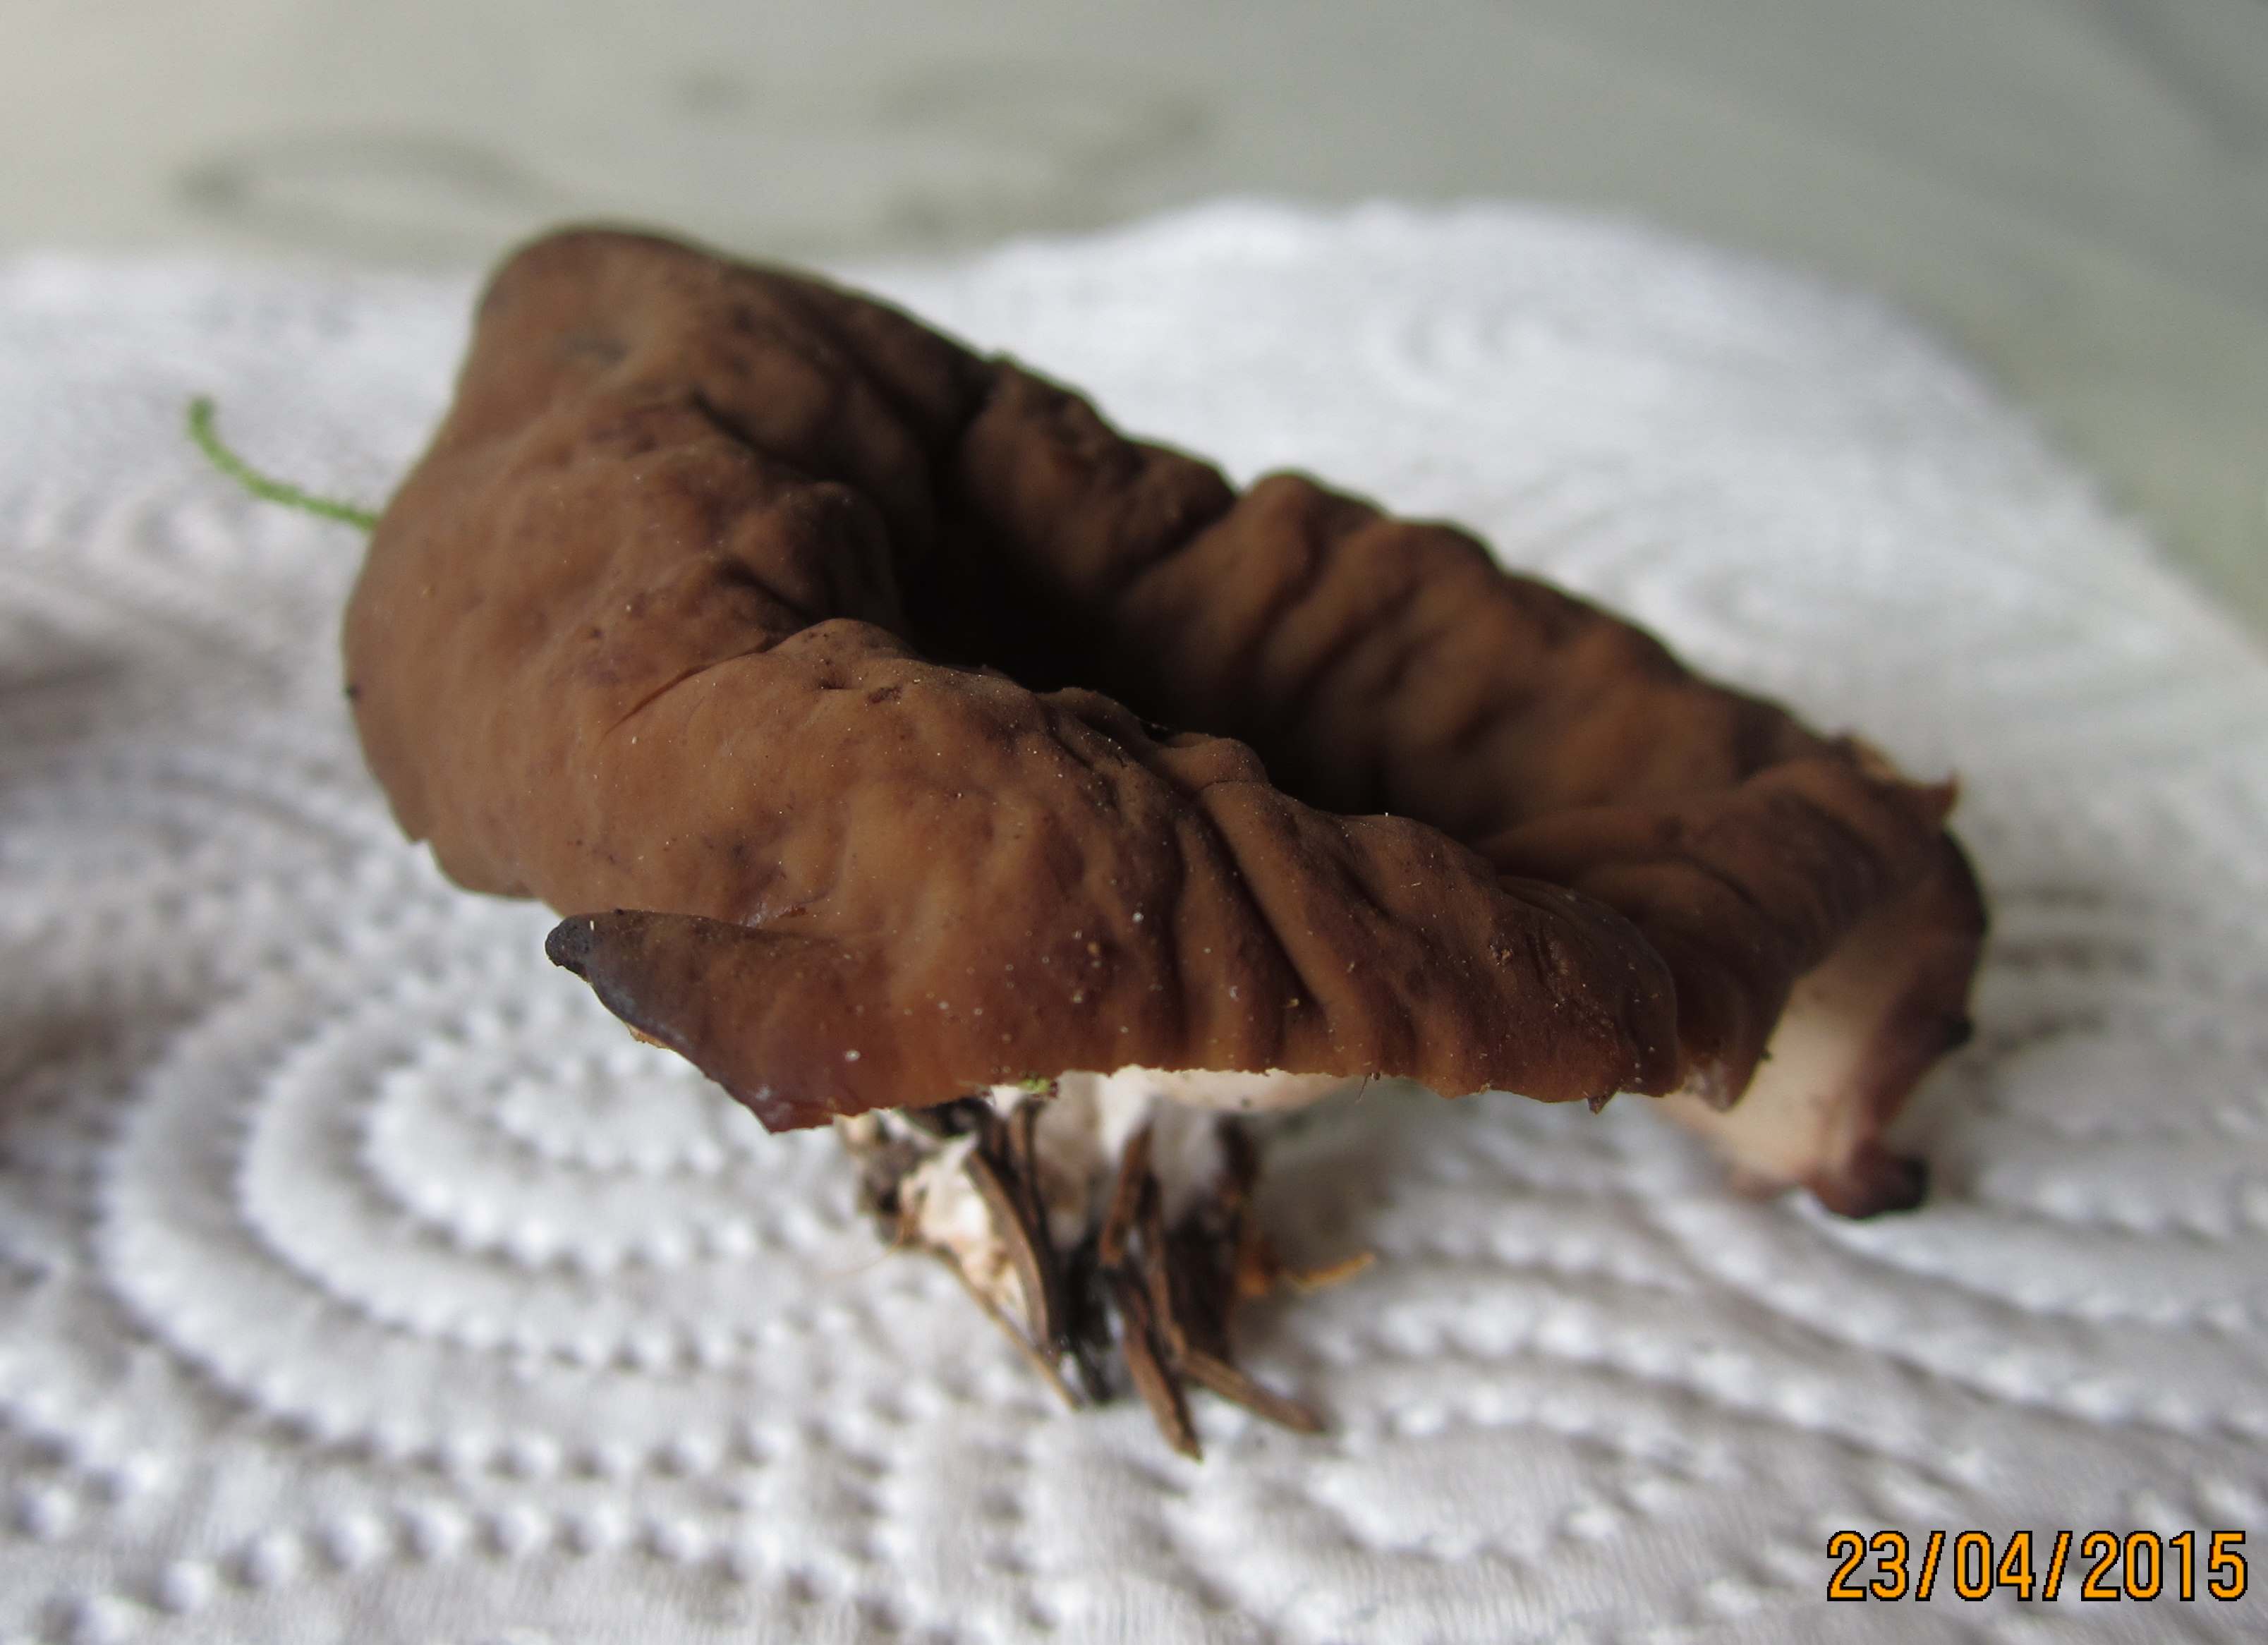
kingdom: Fungi
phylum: Ascomycota
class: Pezizomycetes
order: Pezizales
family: Discinaceae
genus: Discina
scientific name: Discina ancilis
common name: udbredt stenmorkel
